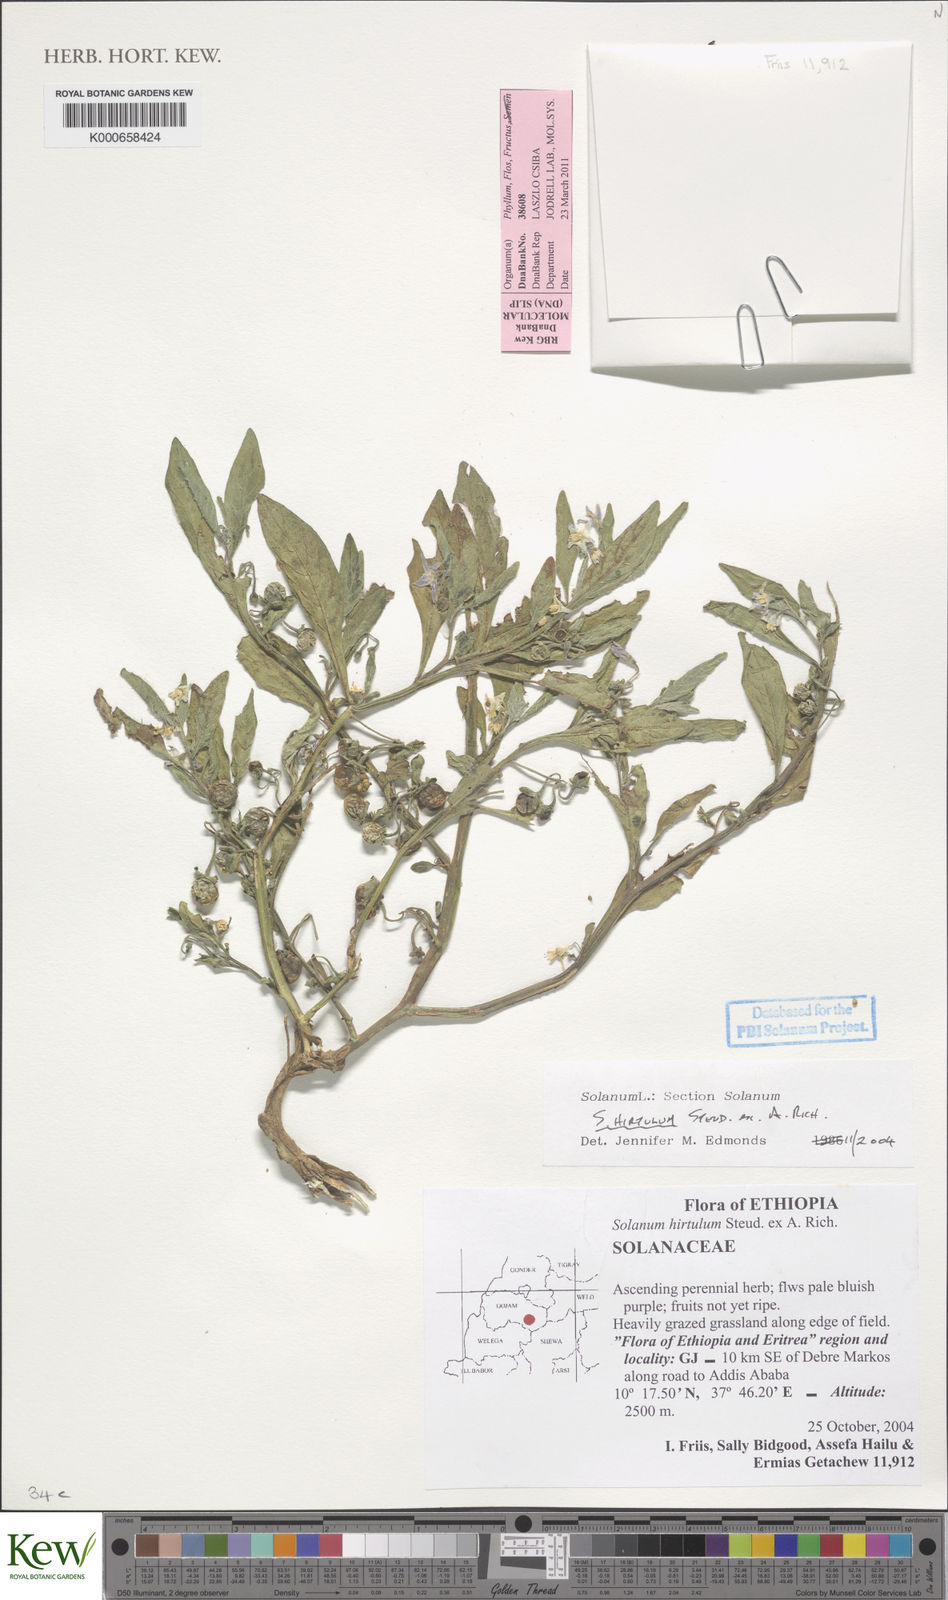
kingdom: Plantae
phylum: Tracheophyta
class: Magnoliopsida
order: Solanales
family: Solanaceae
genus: Solanum
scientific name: Solanum hirtulum
